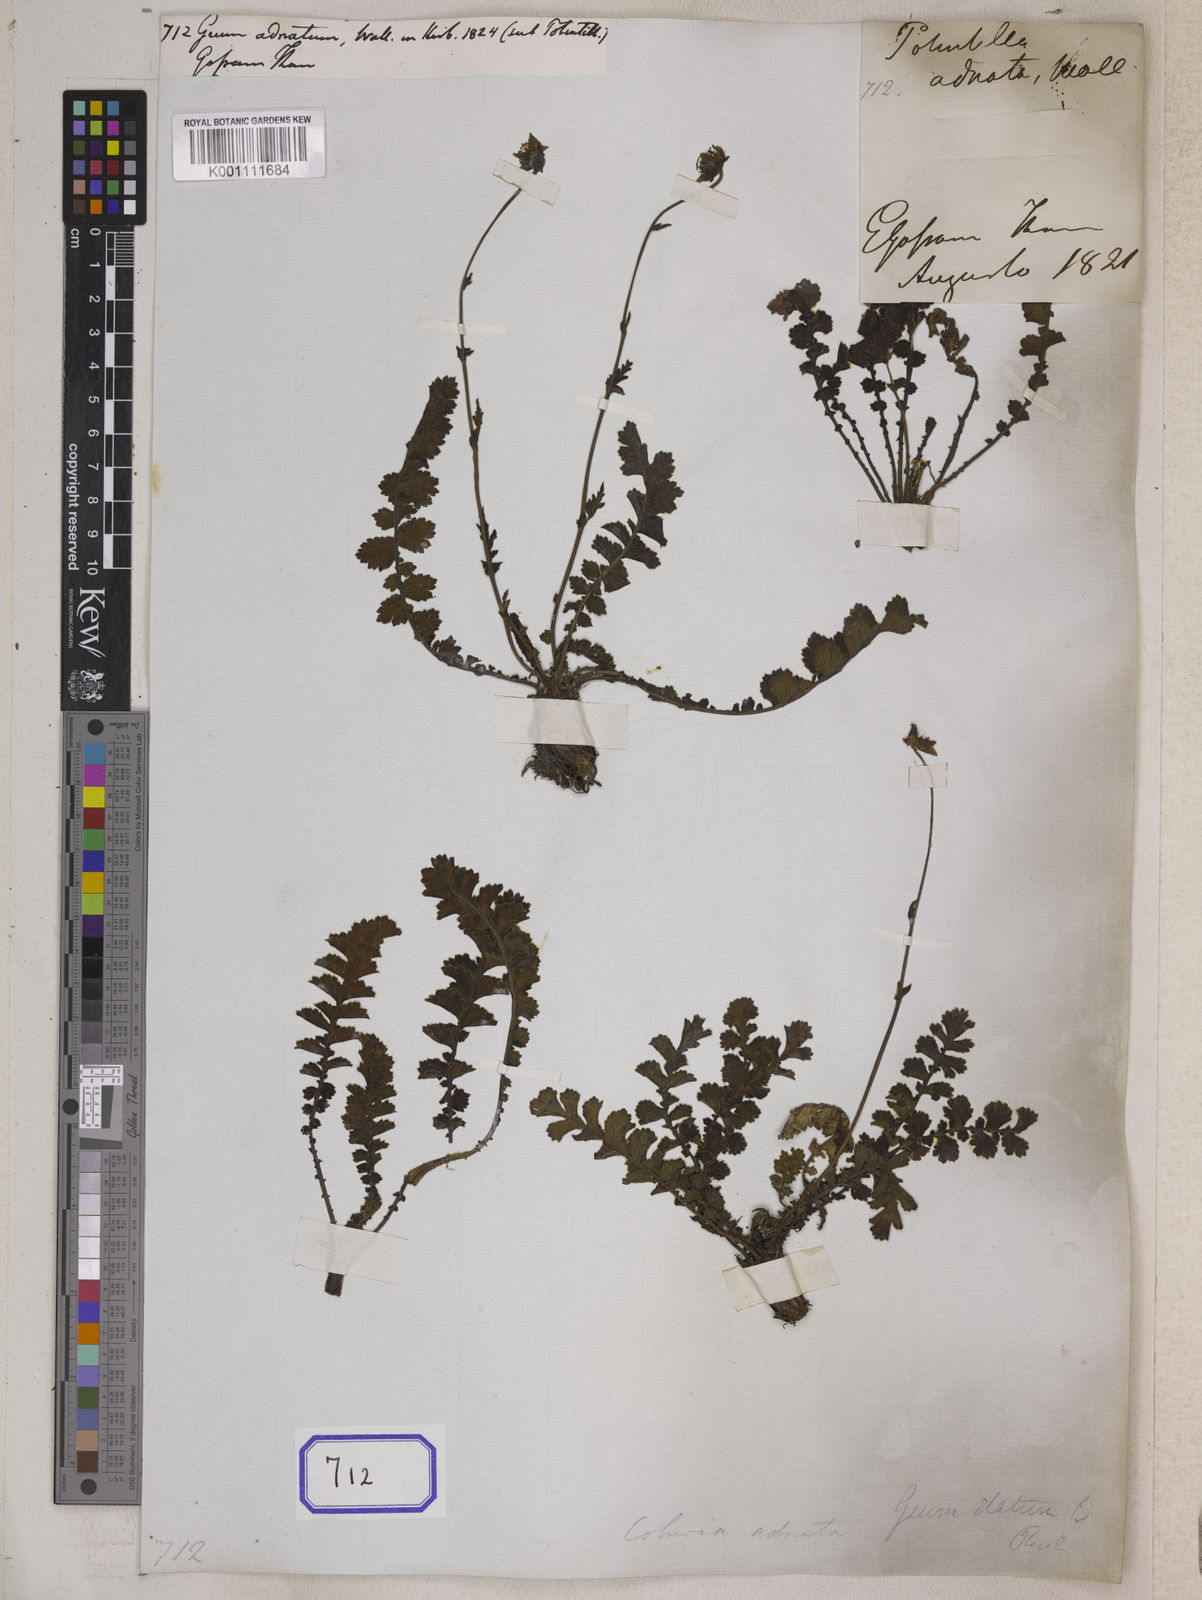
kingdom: Plantae
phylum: Tracheophyta
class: Magnoliopsida
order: Rosales
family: Rosaceae
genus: Geum
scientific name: Geum elatum
